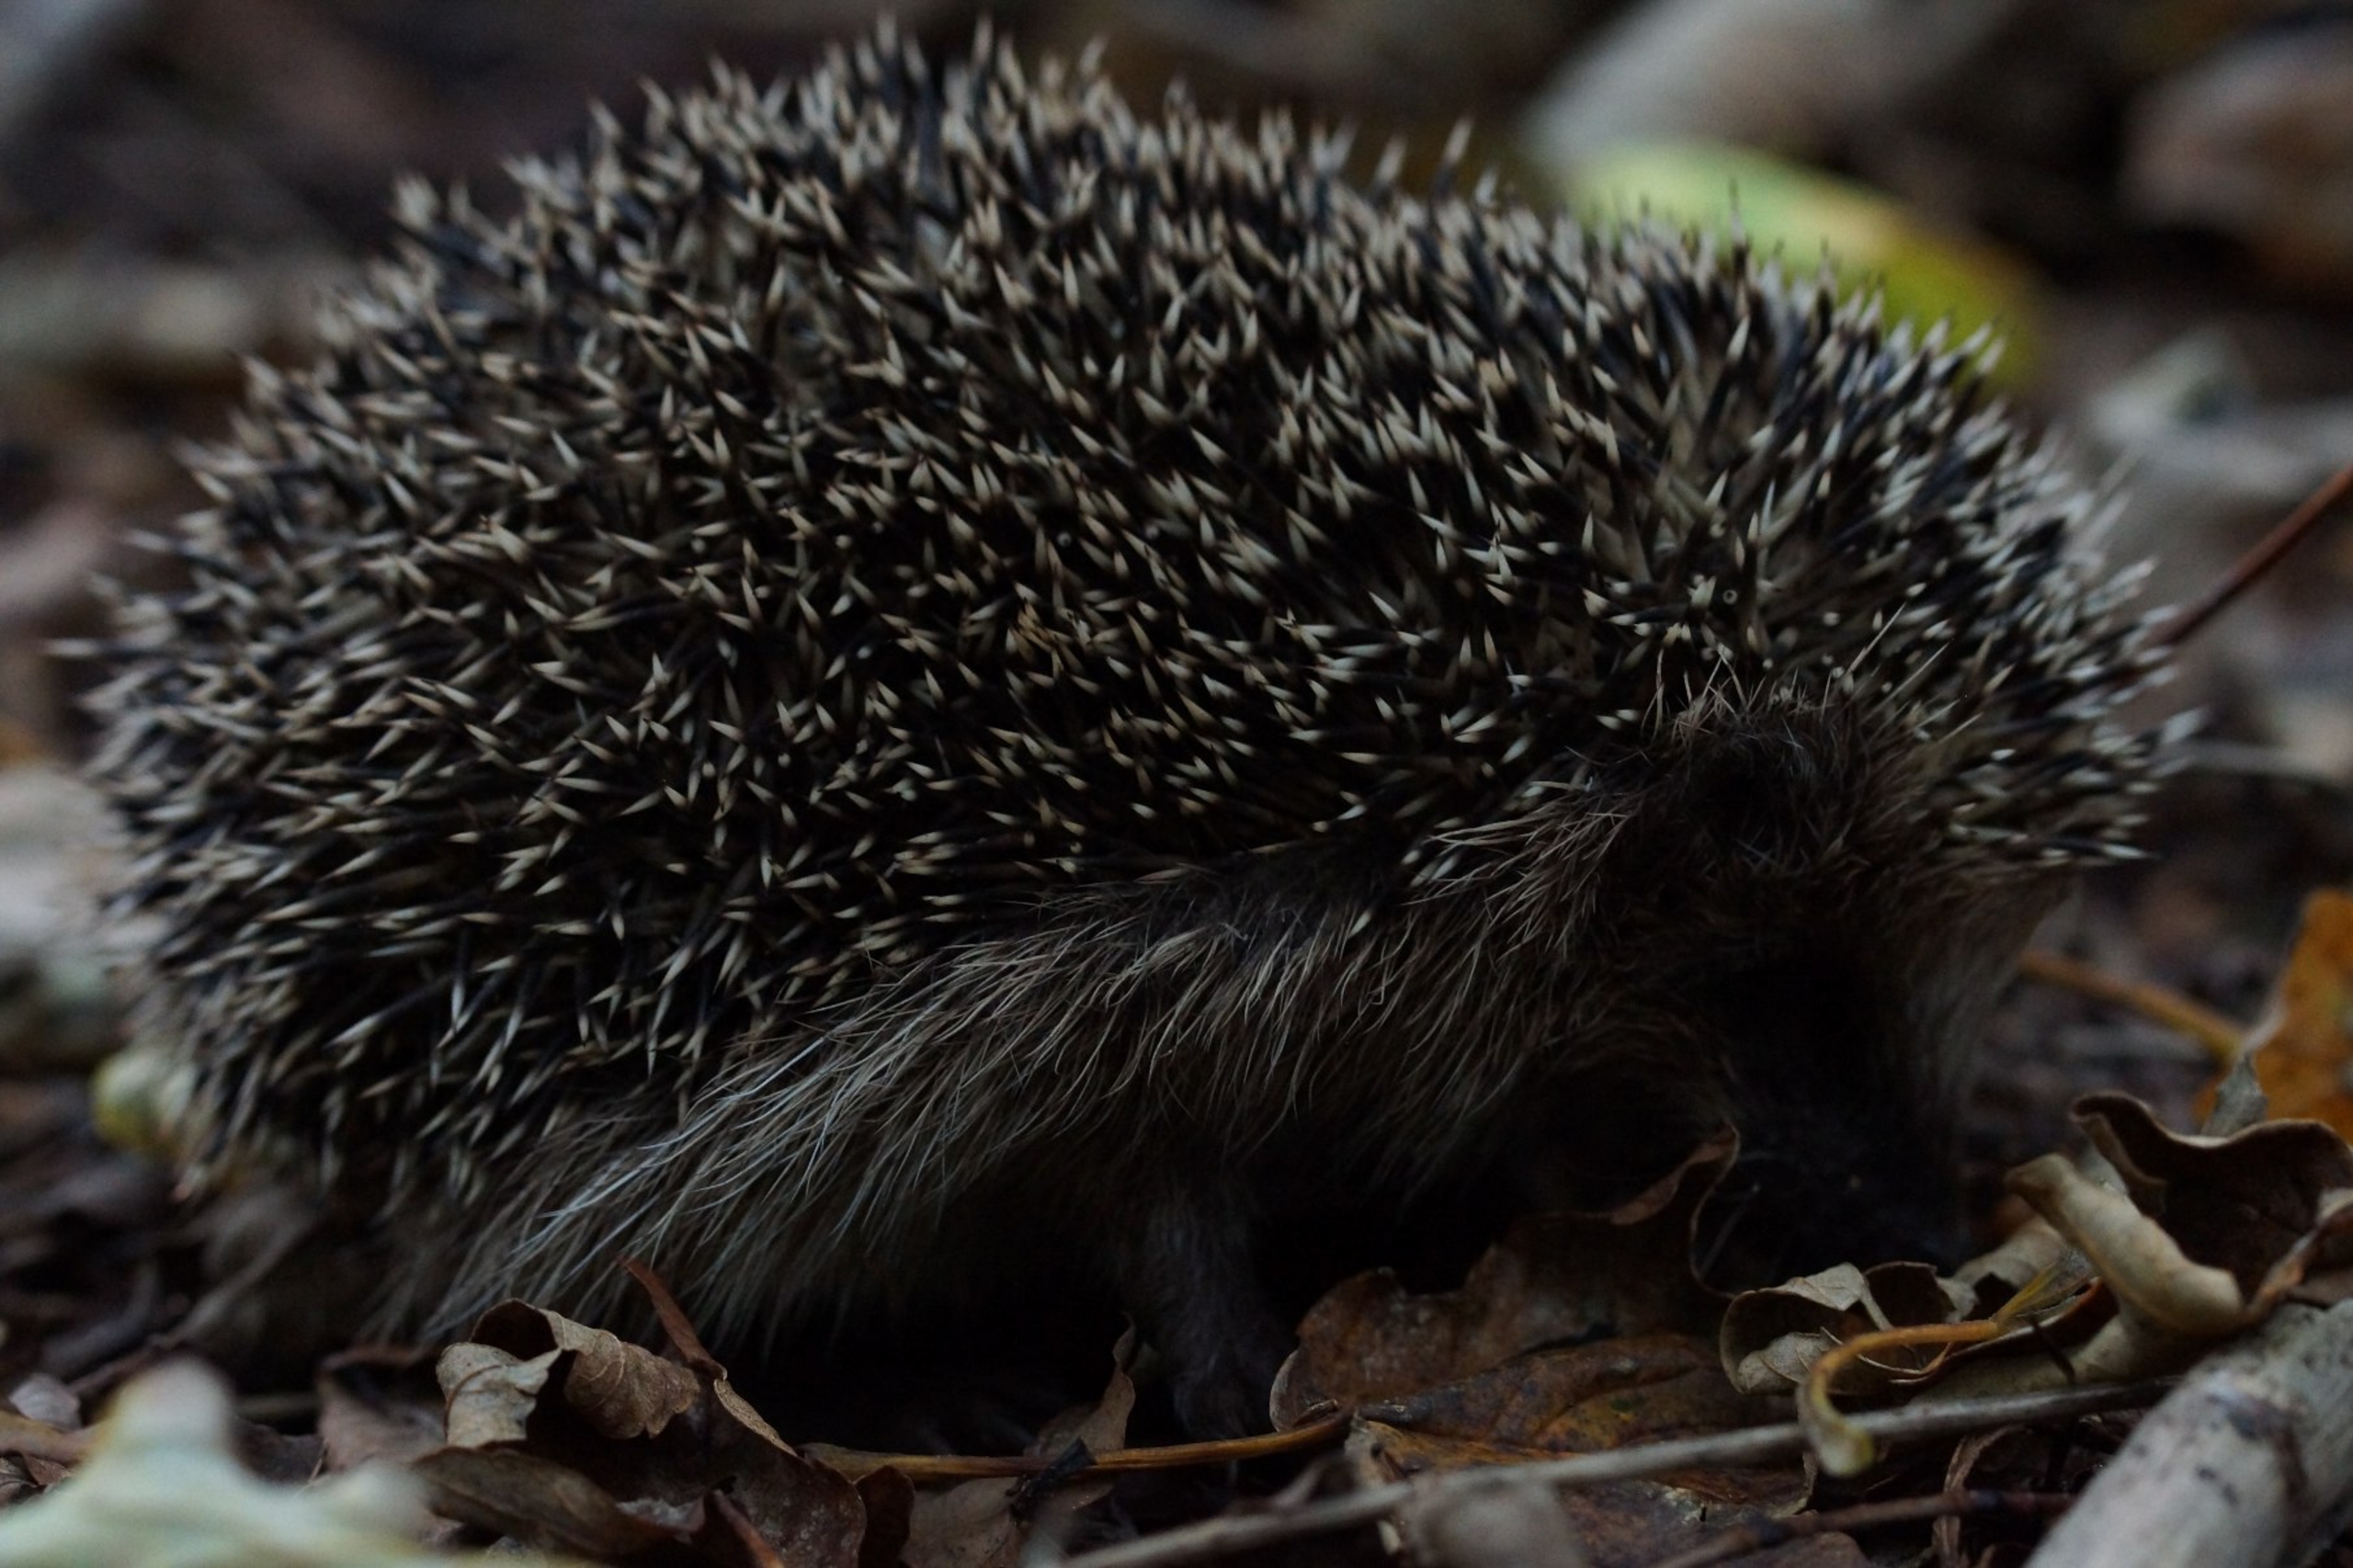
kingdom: Animalia
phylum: Chordata
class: Mammalia
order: Erinaceomorpha
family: Erinaceidae
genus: Erinaceus
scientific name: Erinaceus europaeus
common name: Pindsvin
